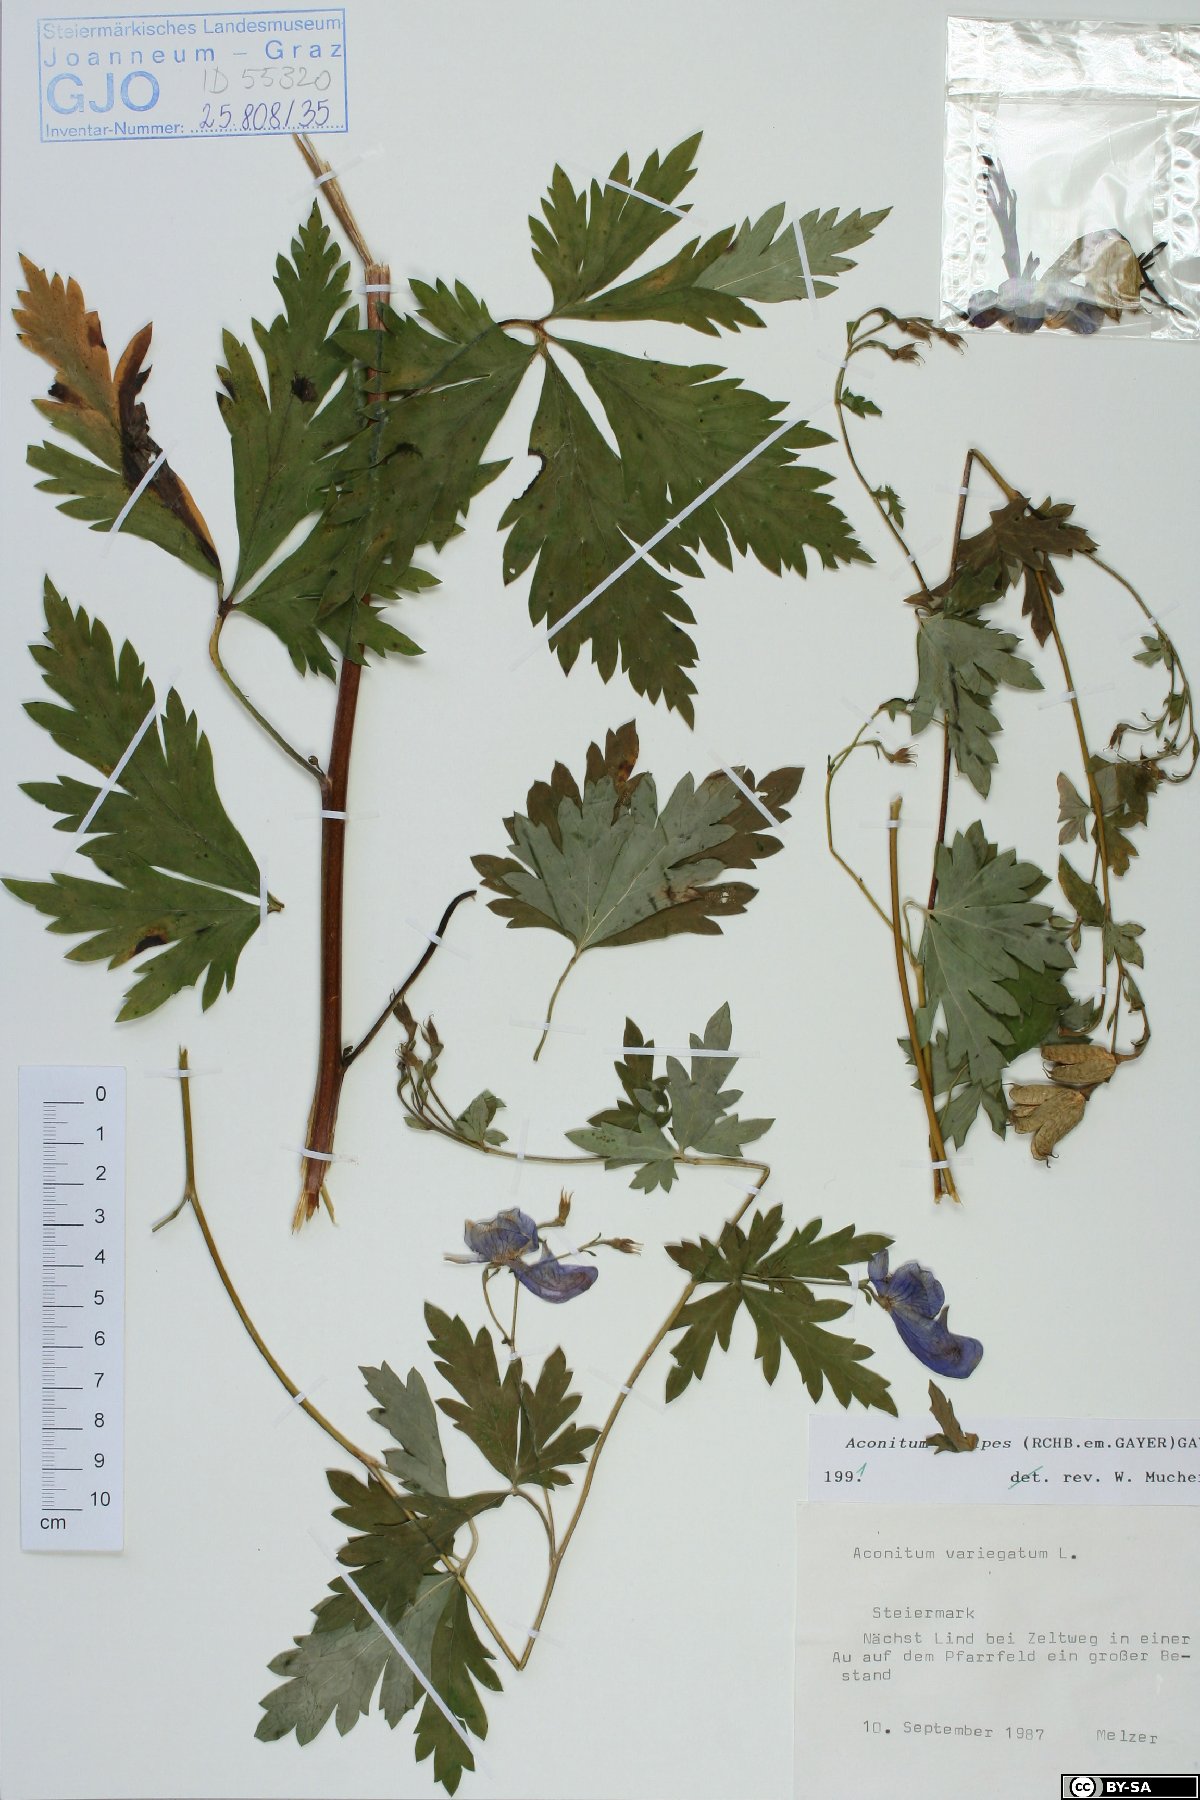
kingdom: Plantae
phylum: Tracheophyta
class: Magnoliopsida
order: Ranunculales
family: Ranunculaceae
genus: Aconitum
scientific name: Aconitum pilipes
